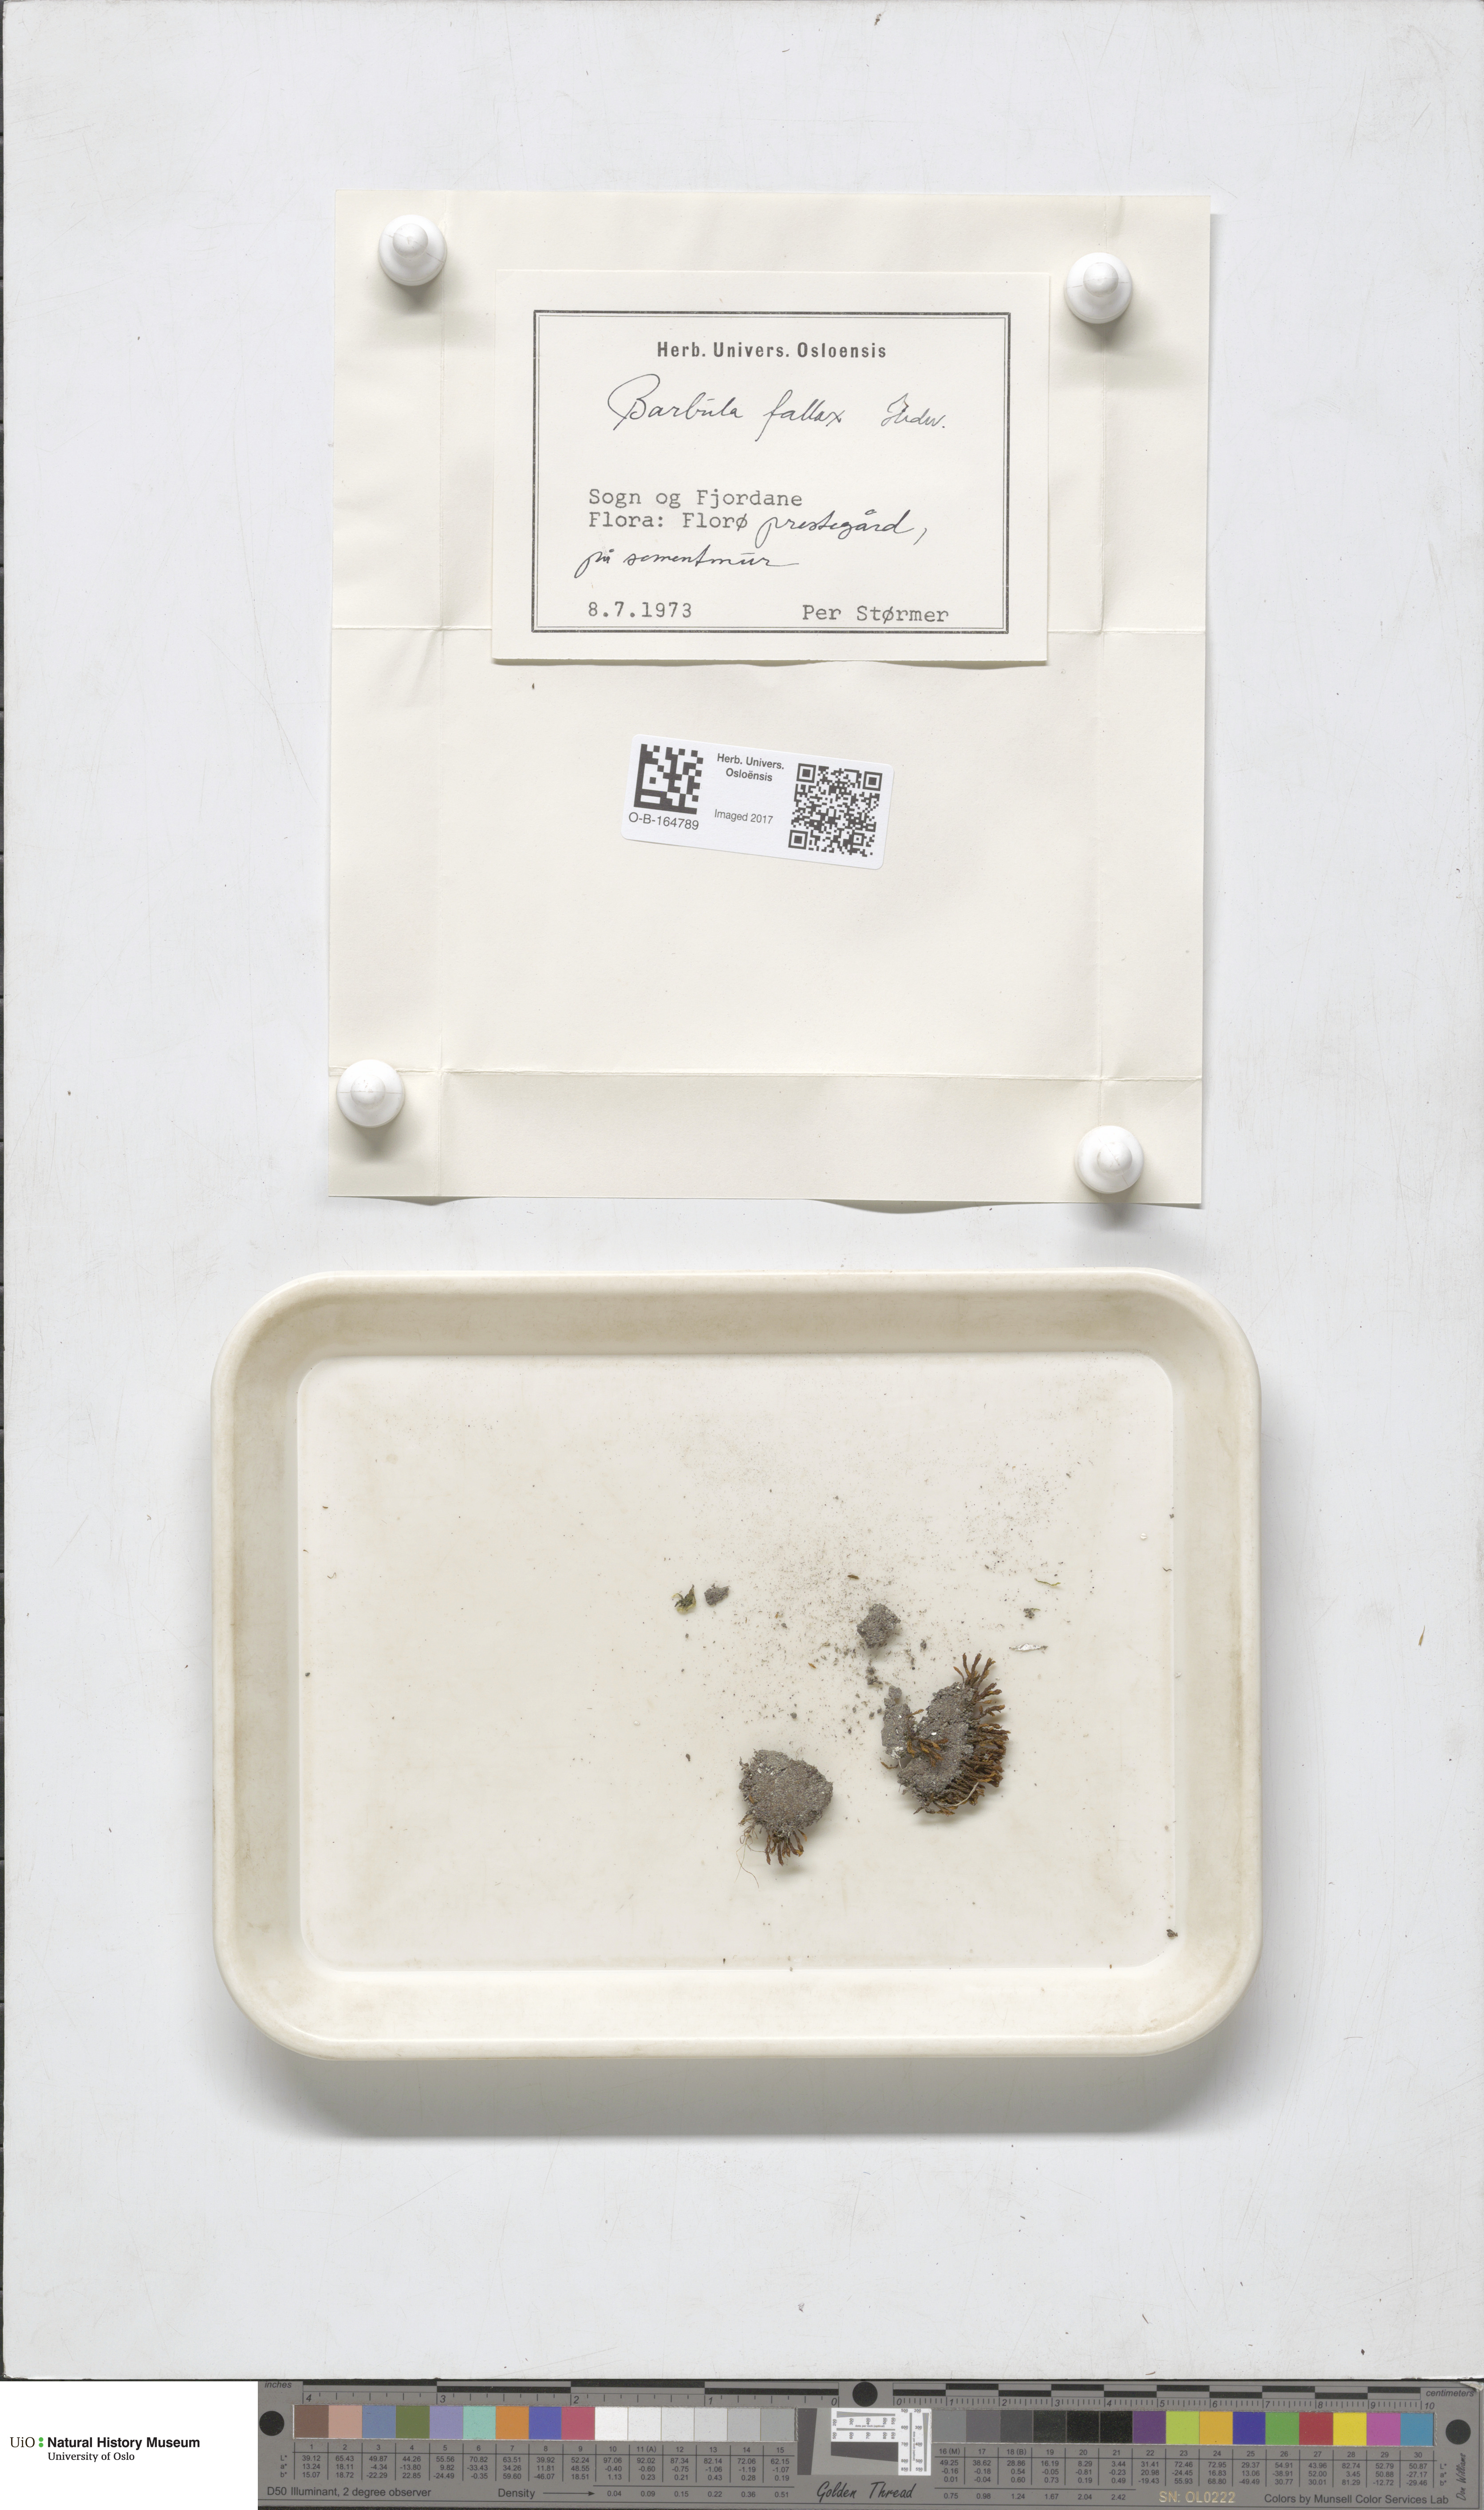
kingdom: Plantae
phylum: Bryophyta
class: Bryopsida
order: Pottiales
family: Pottiaceae
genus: Geheebia
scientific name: Geheebia fallax
